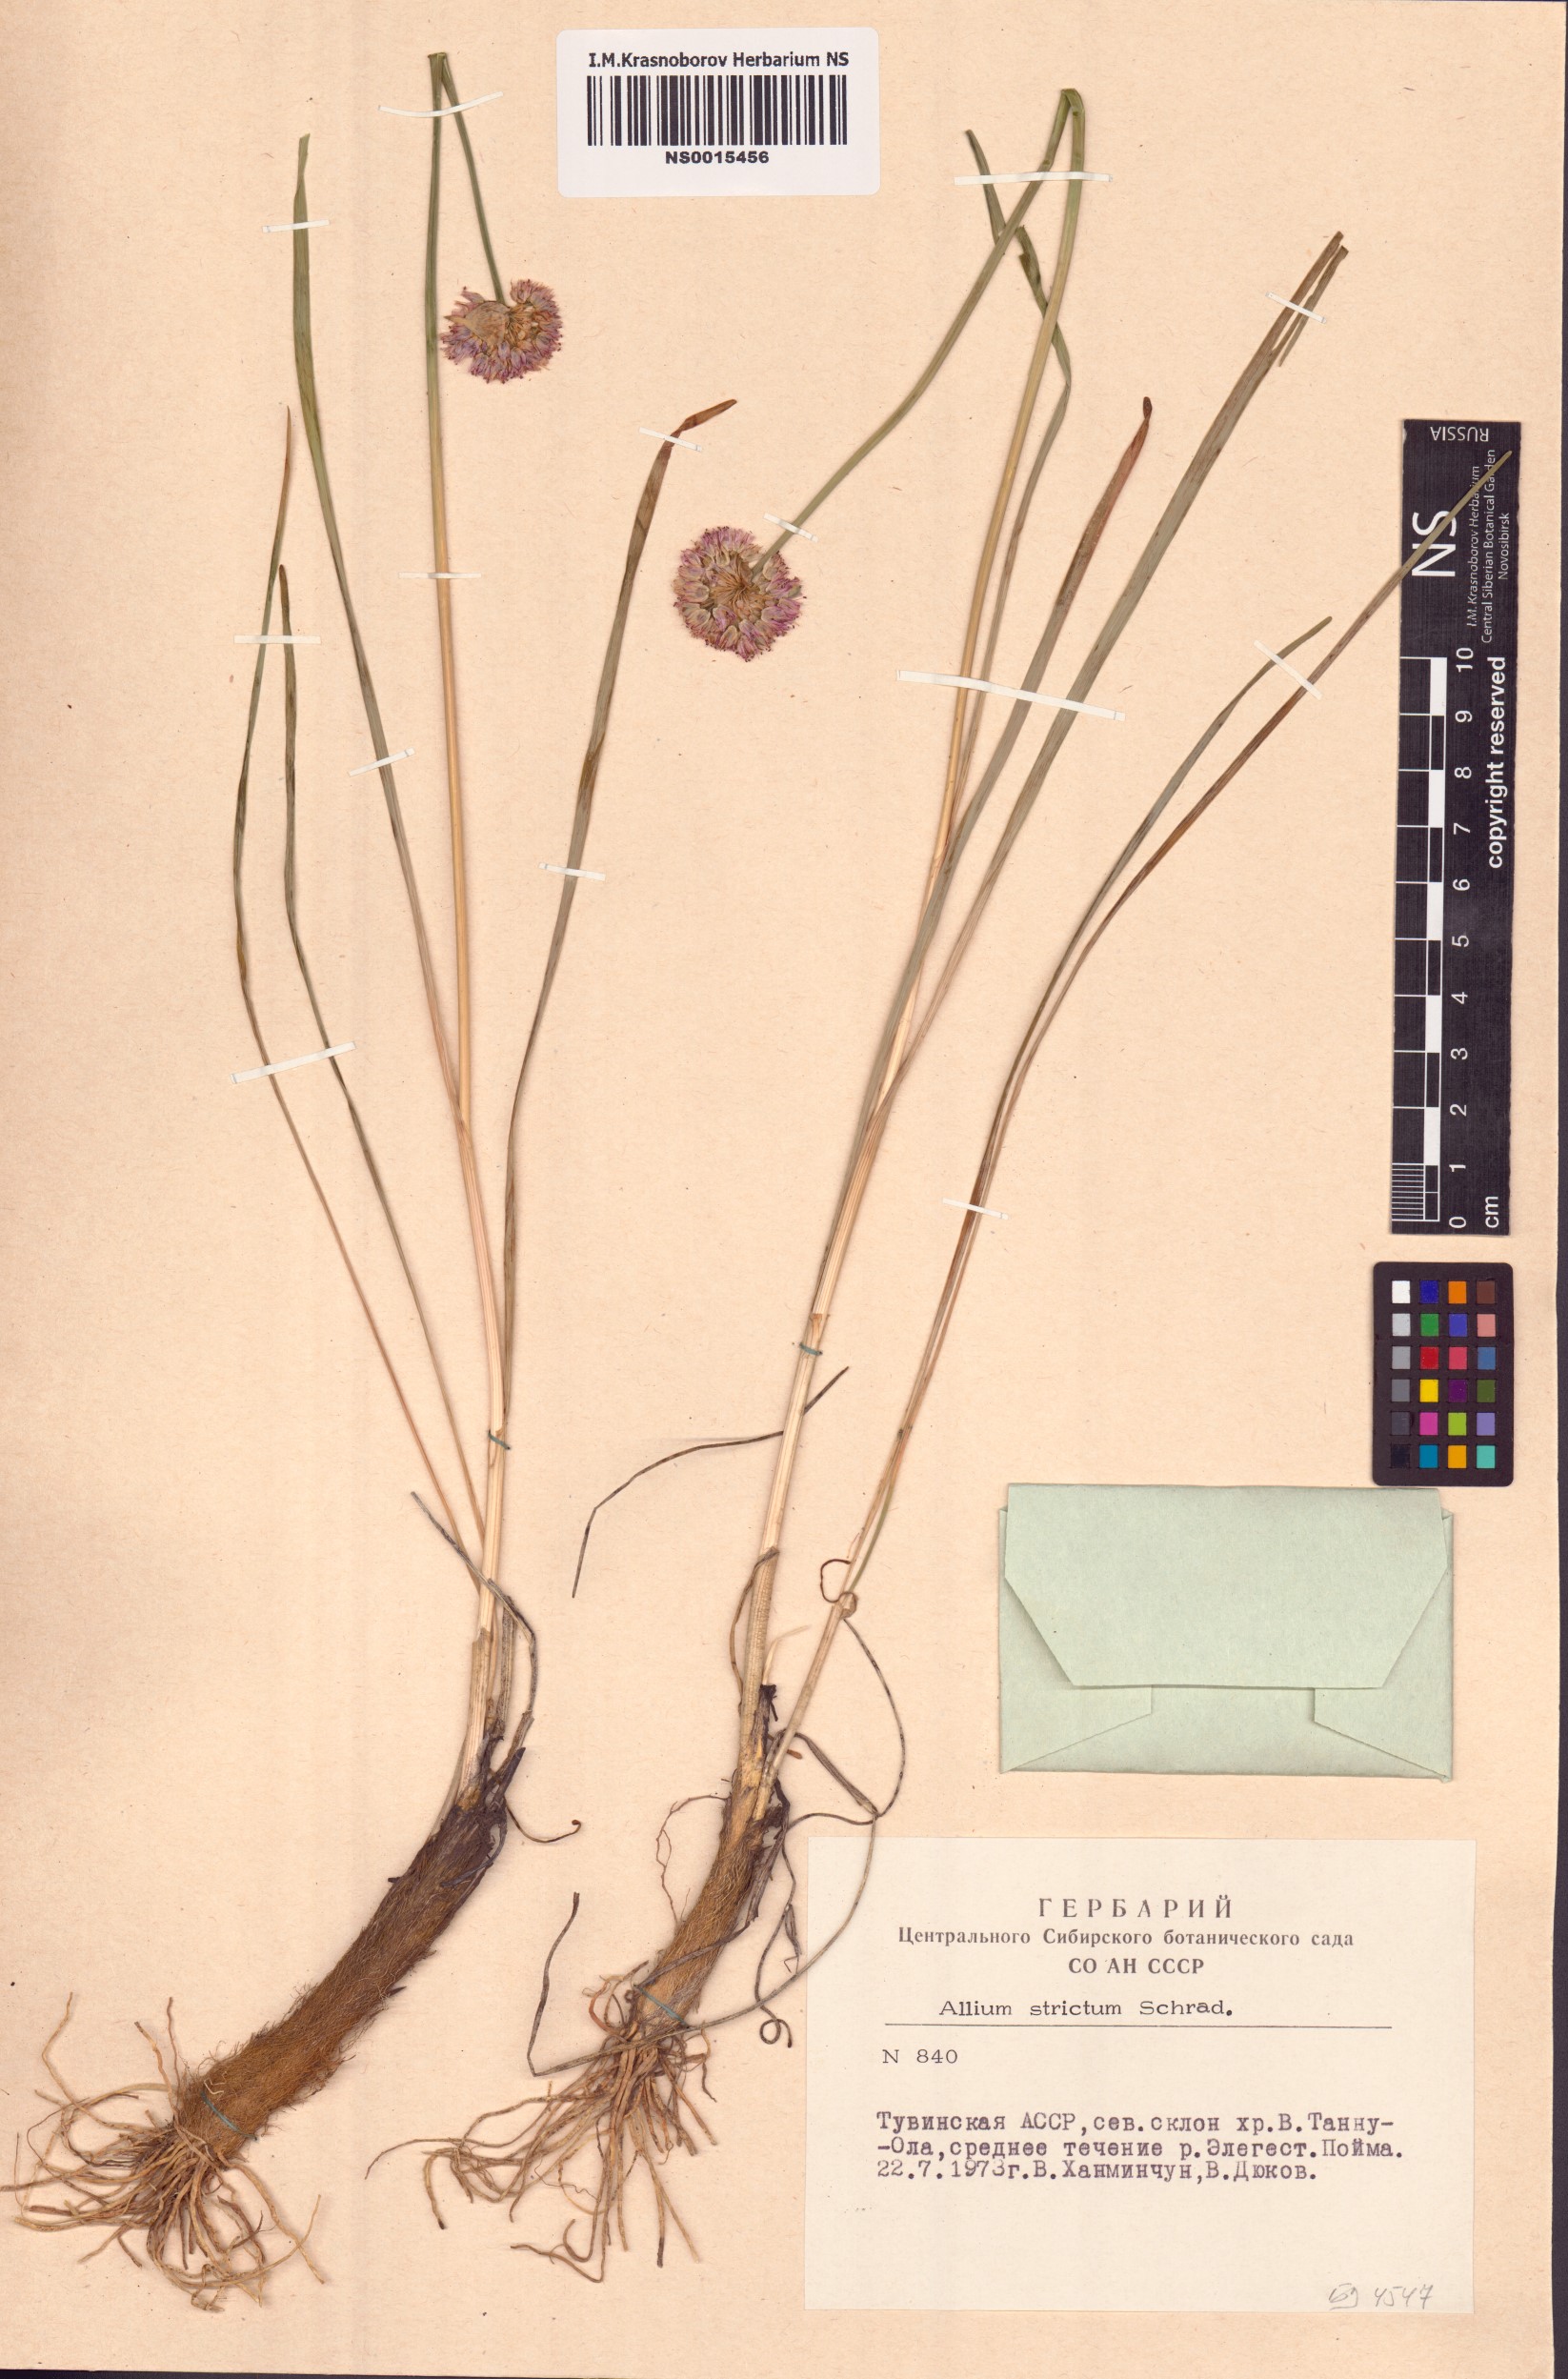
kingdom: Plantae
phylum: Tracheophyta
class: Liliopsida
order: Asparagales
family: Amaryllidaceae
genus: Allium
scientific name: Allium strictum
